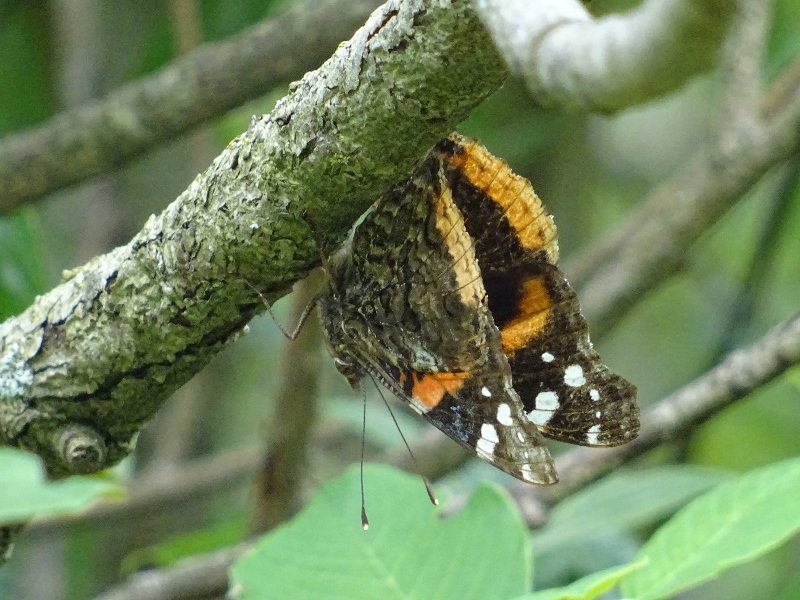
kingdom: Animalia
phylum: Arthropoda
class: Insecta
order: Lepidoptera
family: Nymphalidae
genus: Vanessa
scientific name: Vanessa atalanta
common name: Red Admiral
